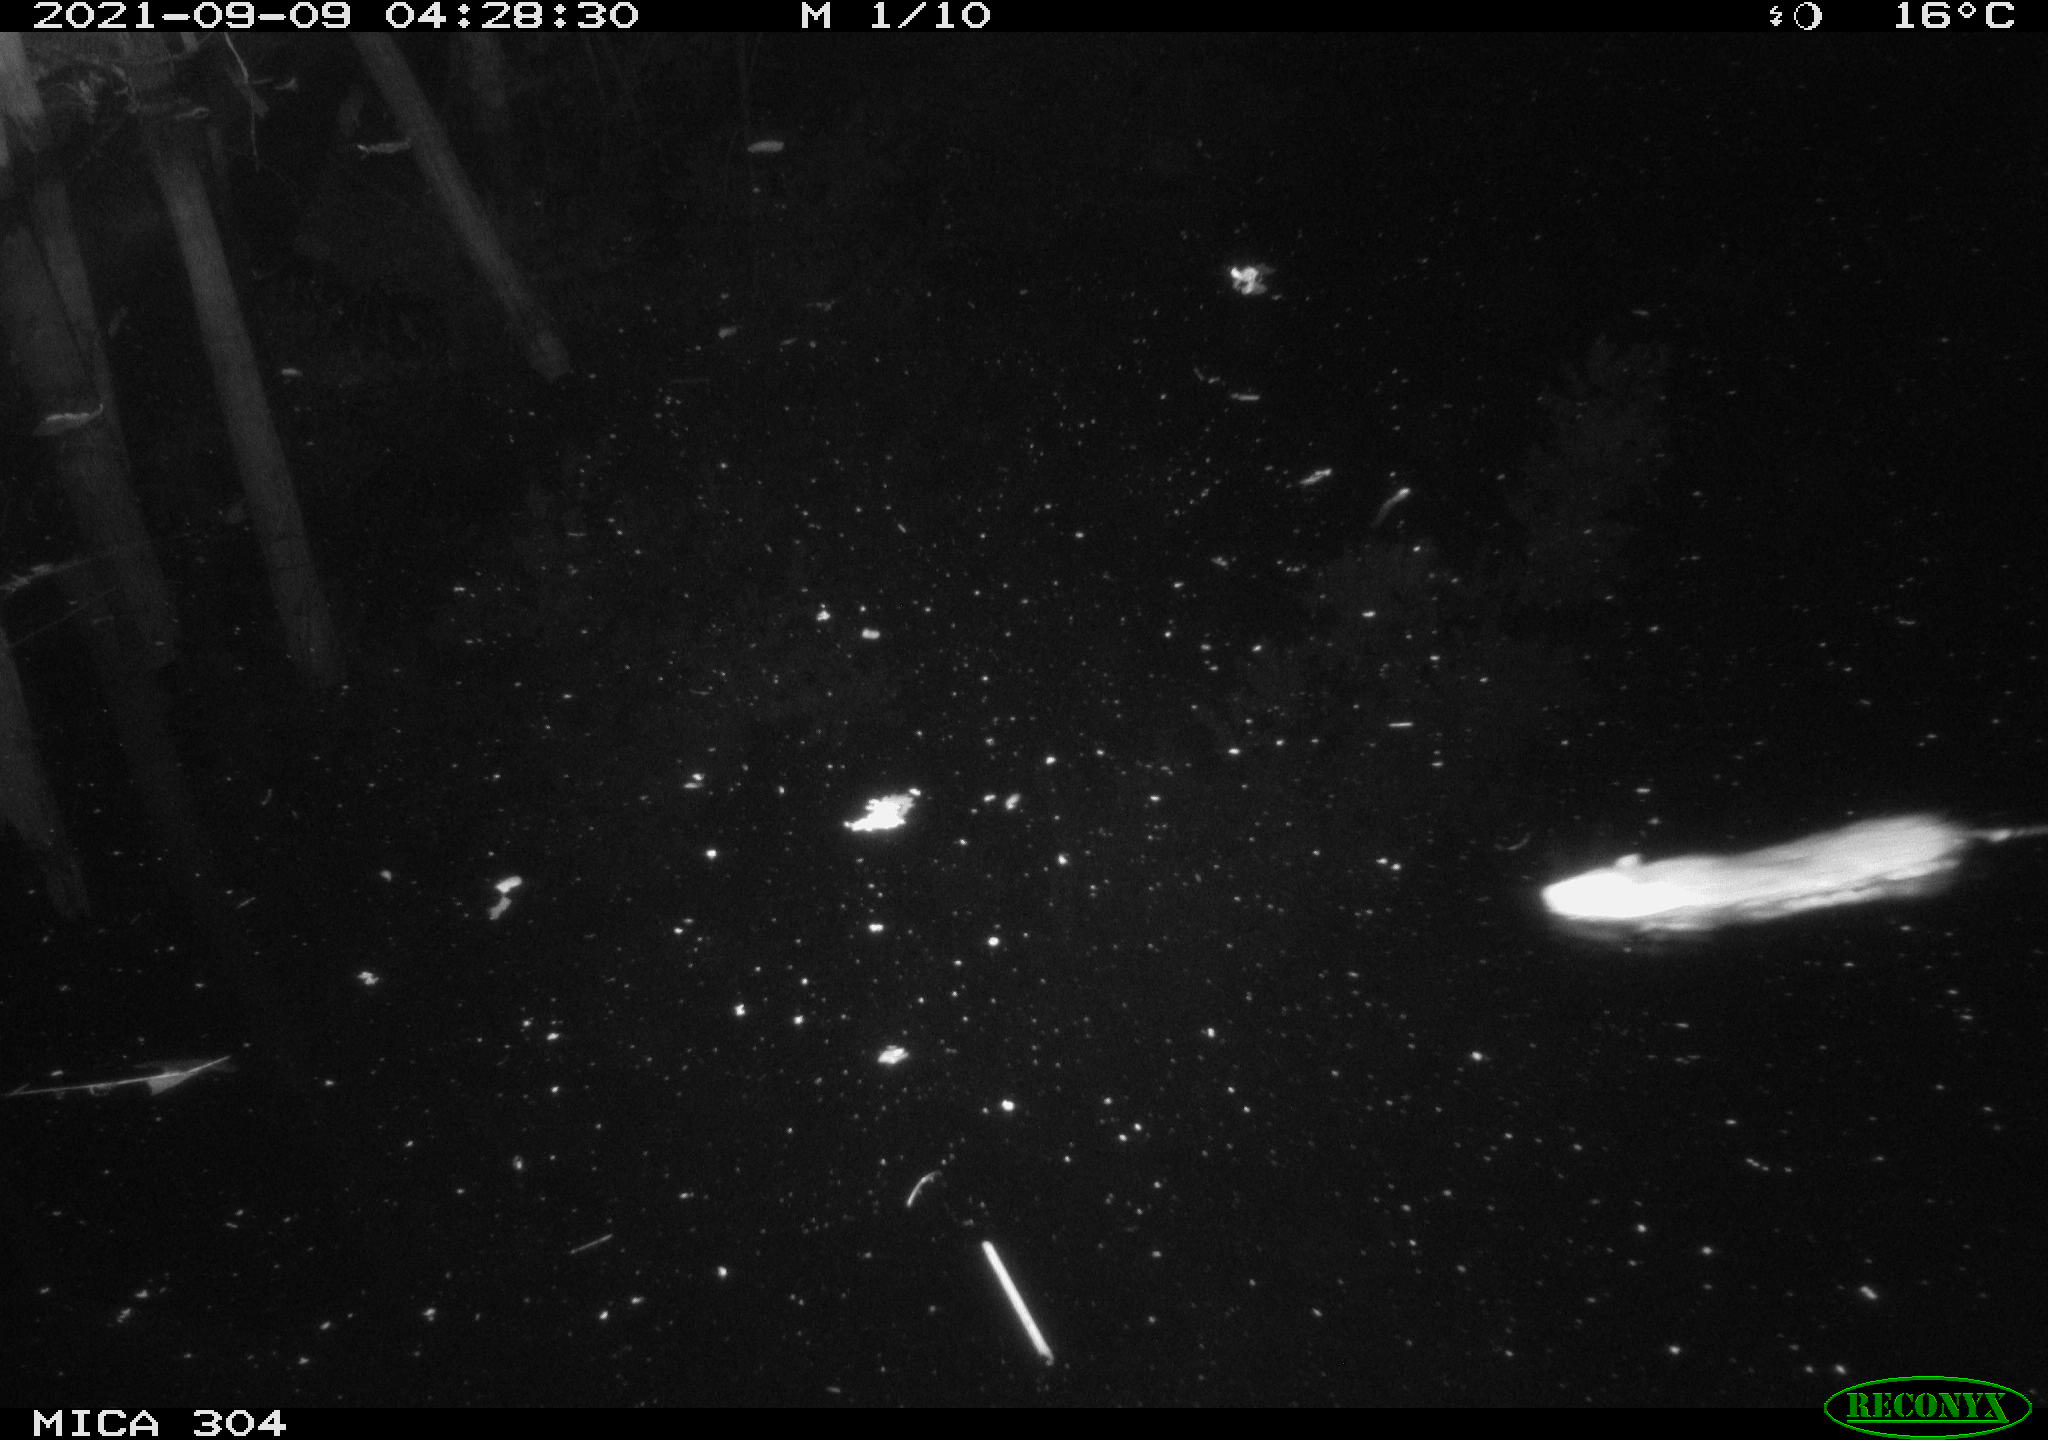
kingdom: Animalia
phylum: Chordata
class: Mammalia
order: Rodentia
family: Muridae
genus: Rattus
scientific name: Rattus norvegicus
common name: Brown rat
